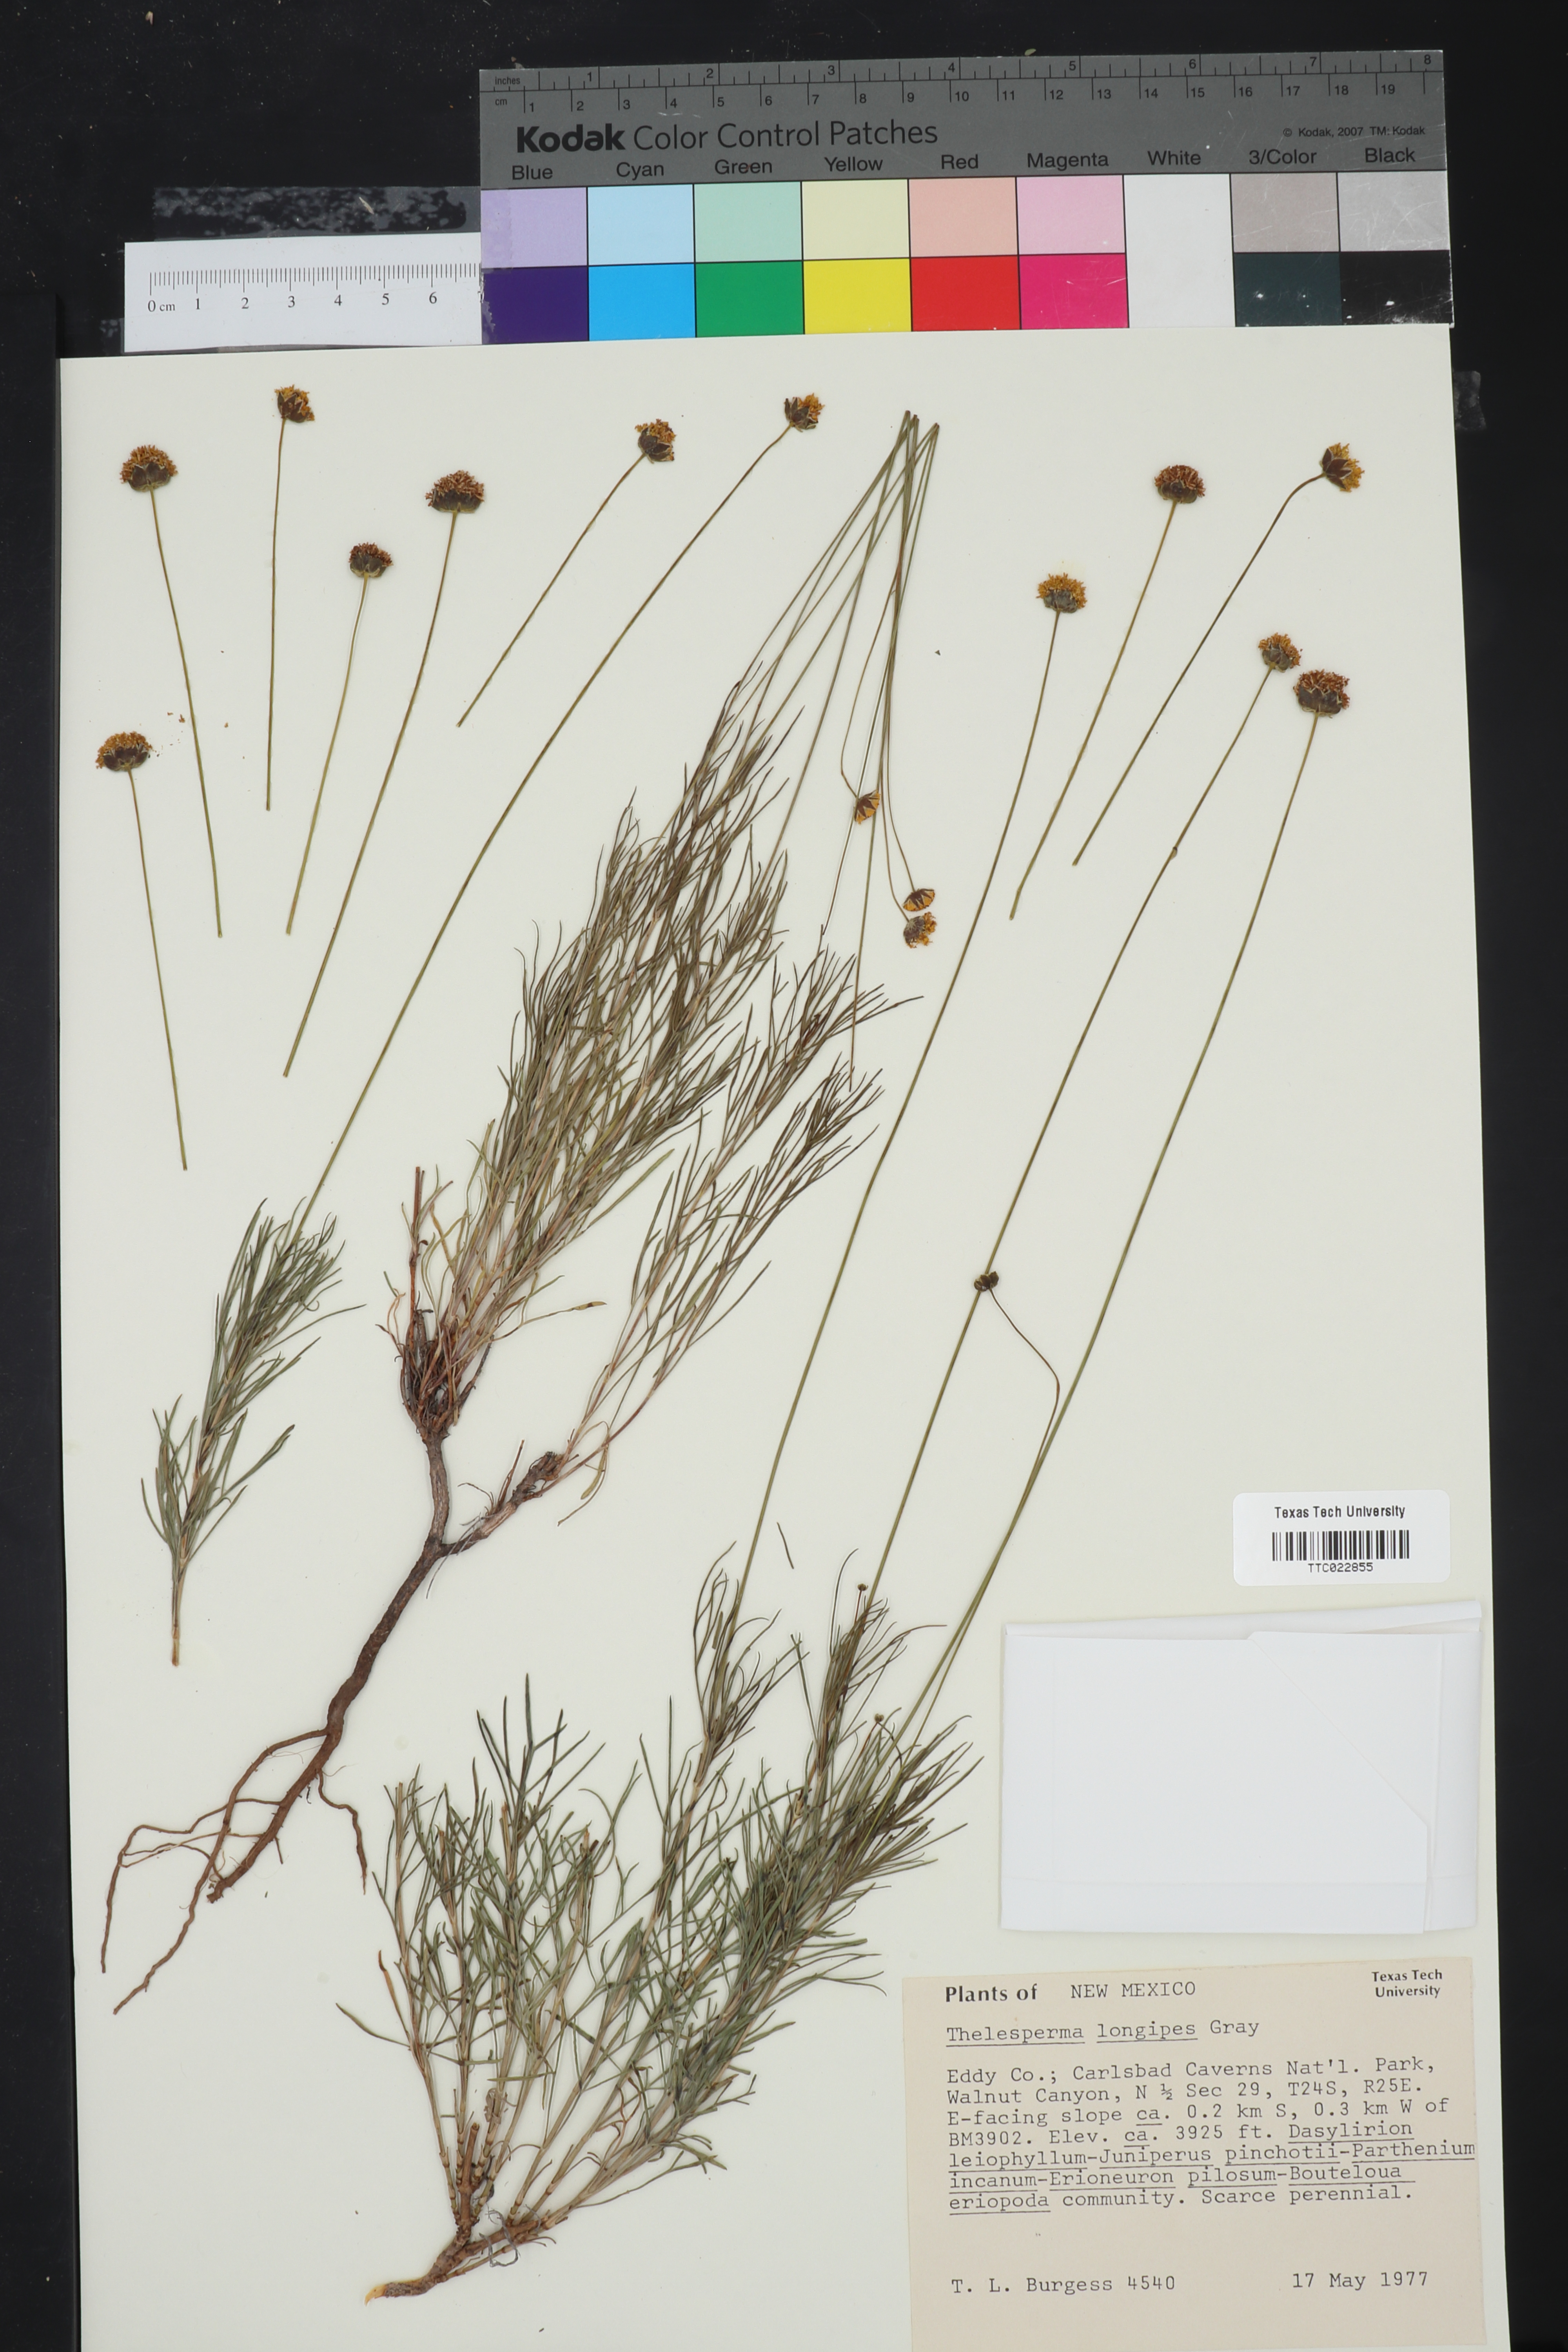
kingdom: Plantae
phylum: Tracheophyta
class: Magnoliopsida
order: Asterales
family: Asteraceae
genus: Thelesperma
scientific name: Thelesperma longipes
